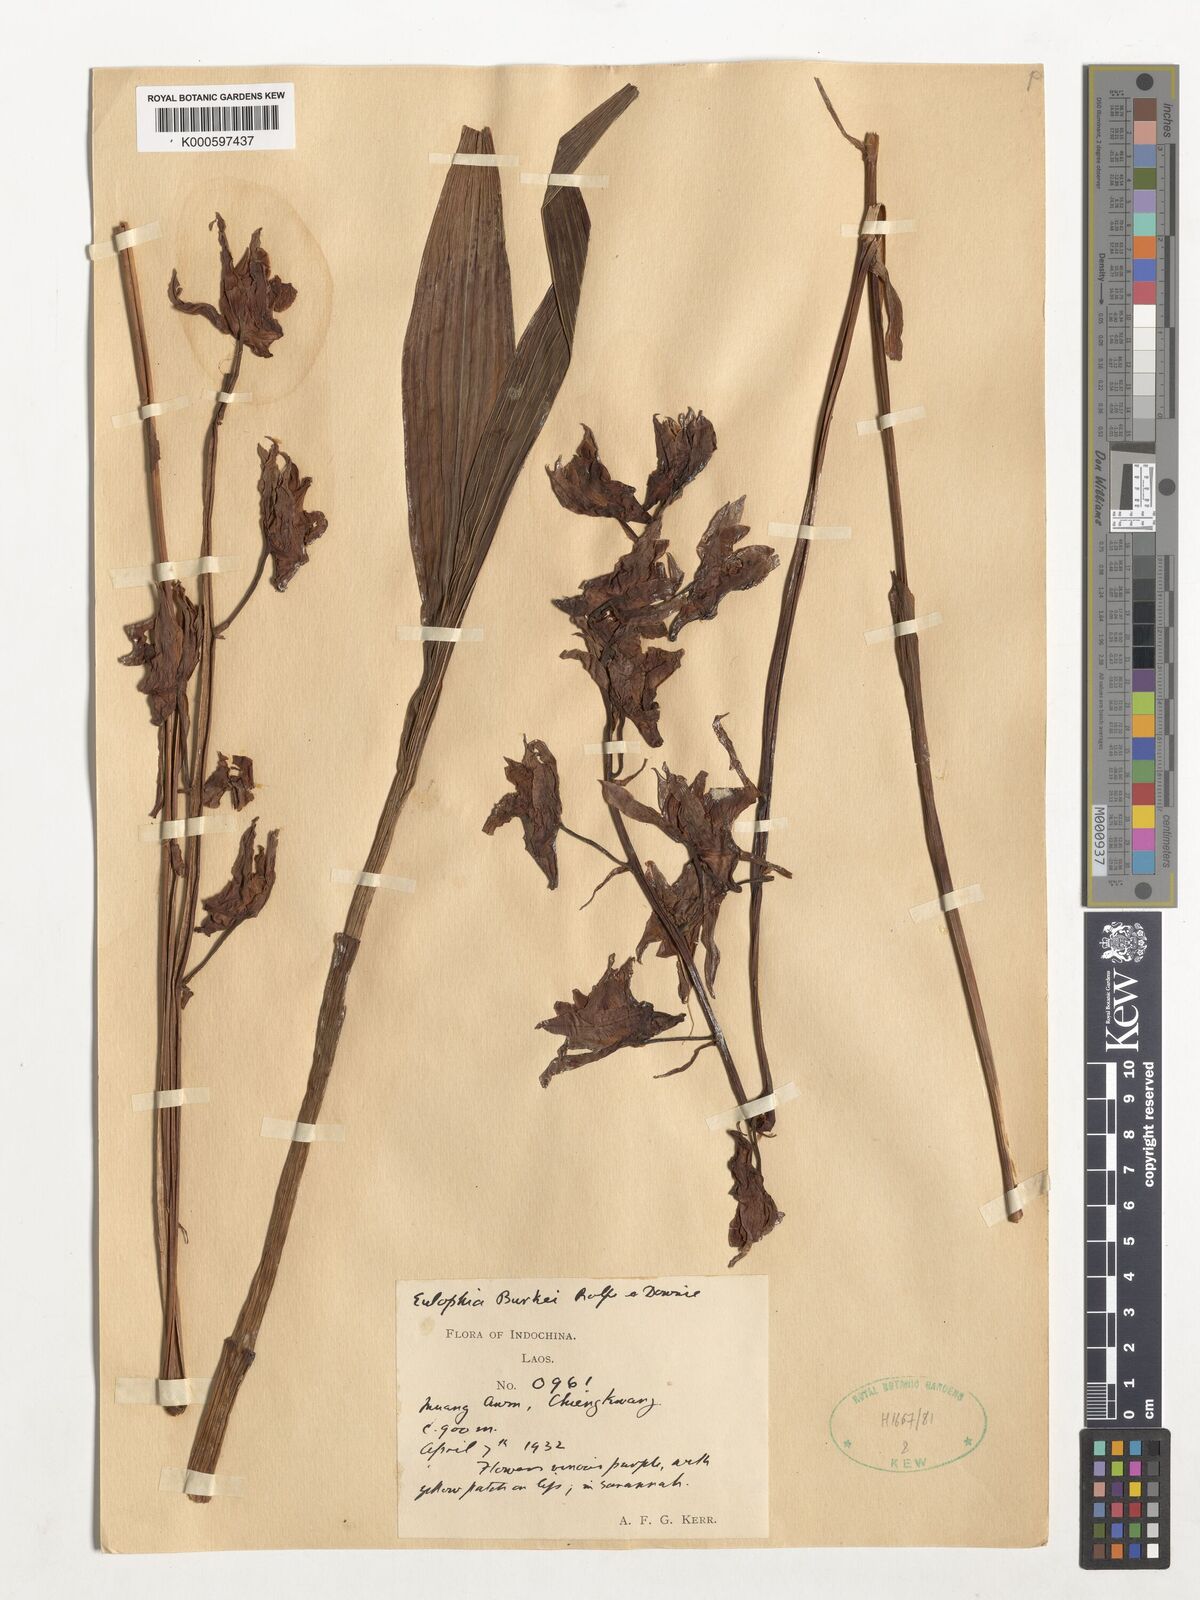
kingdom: Plantae
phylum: Tracheophyta
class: Liliopsida
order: Asparagales
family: Orchidaceae
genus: Eulophia
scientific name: Eulophia nuda
